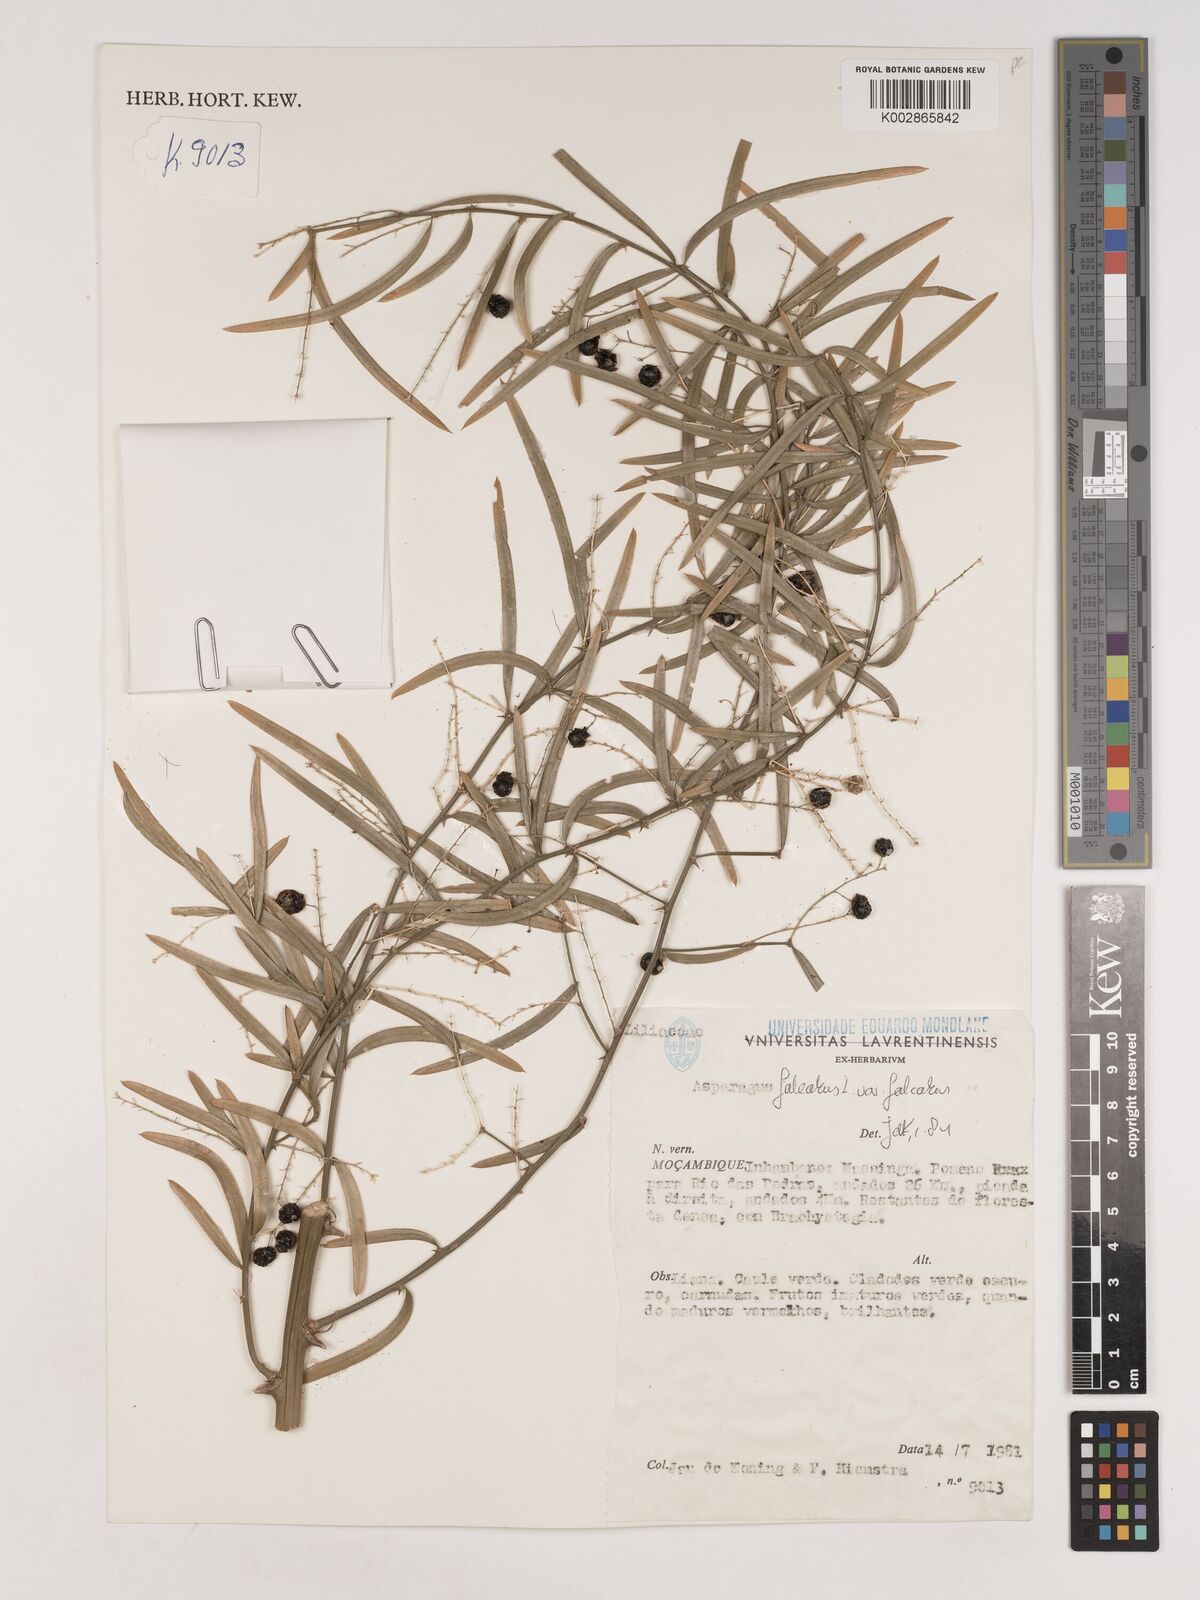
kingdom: Plantae
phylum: Tracheophyta
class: Liliopsida
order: Asparagales
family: Asparagaceae
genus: Asparagus
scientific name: Asparagus falcatus
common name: Asparagus
